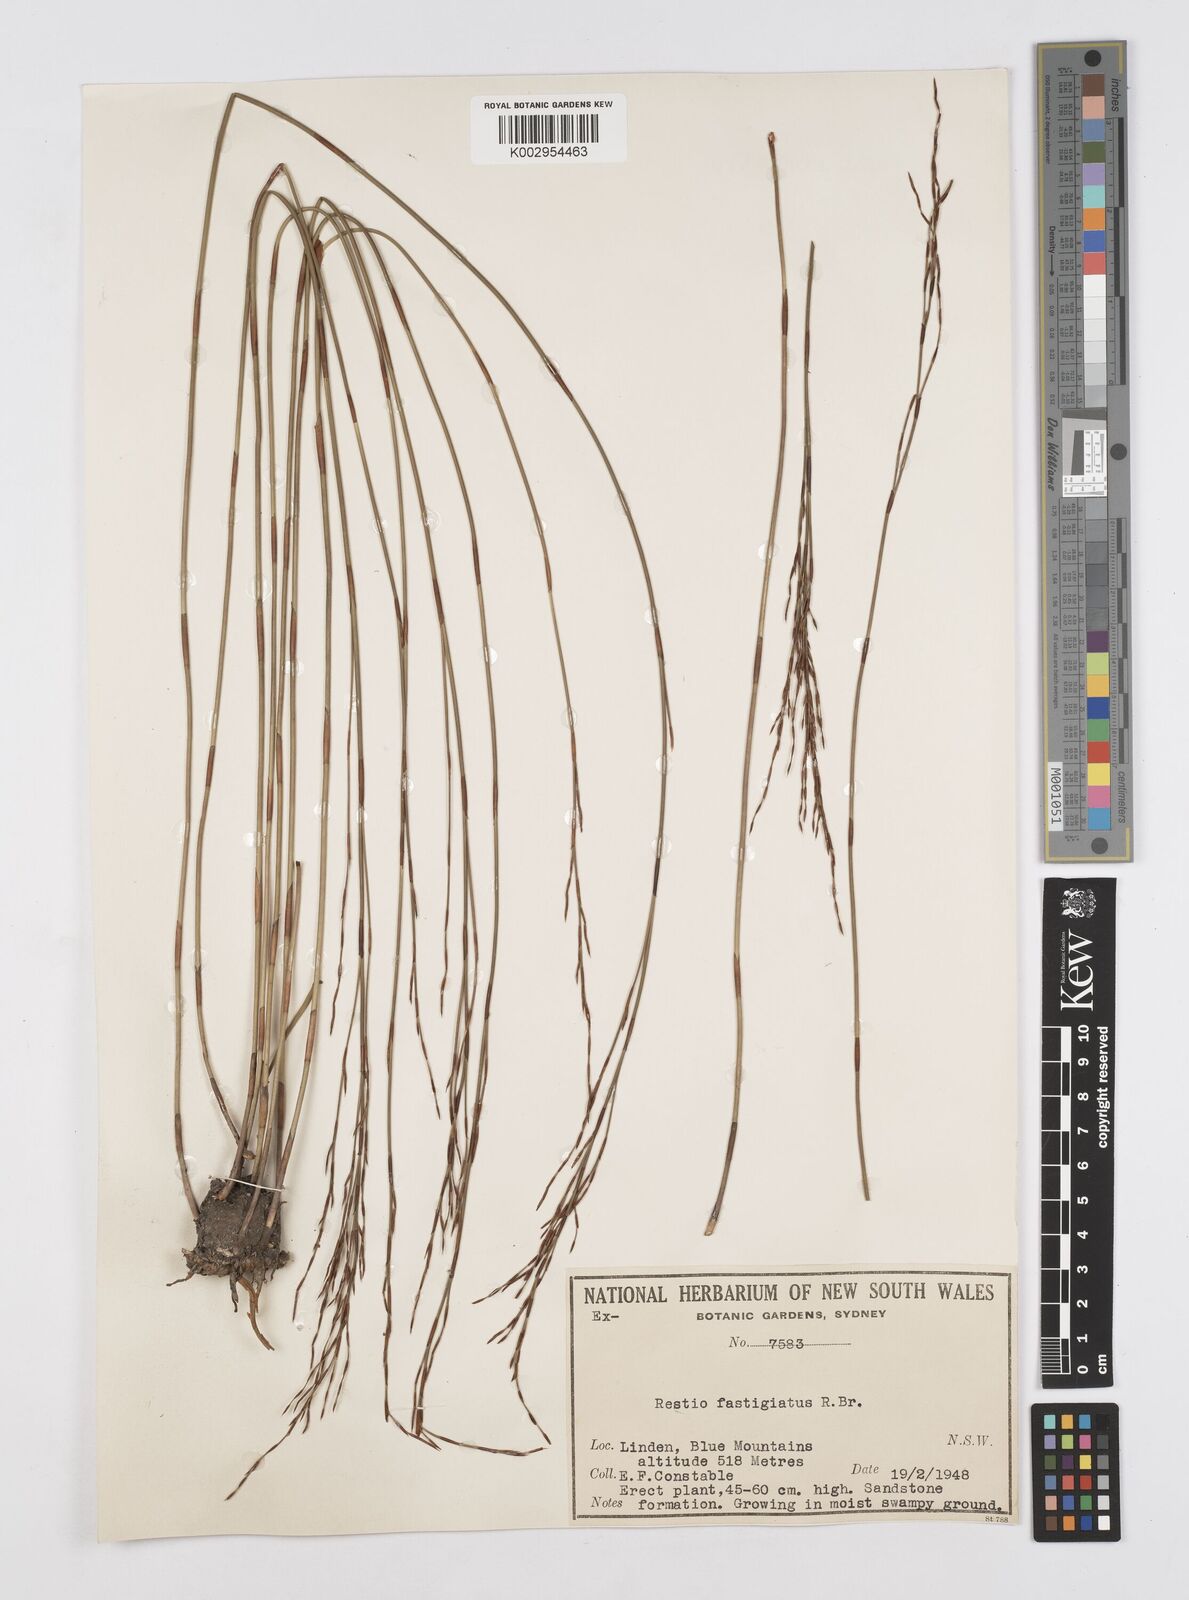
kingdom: Plantae
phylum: Tracheophyta
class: Liliopsida
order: Poales
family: Restionaceae
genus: Chordifex
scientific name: Chordifex fastigiatus
